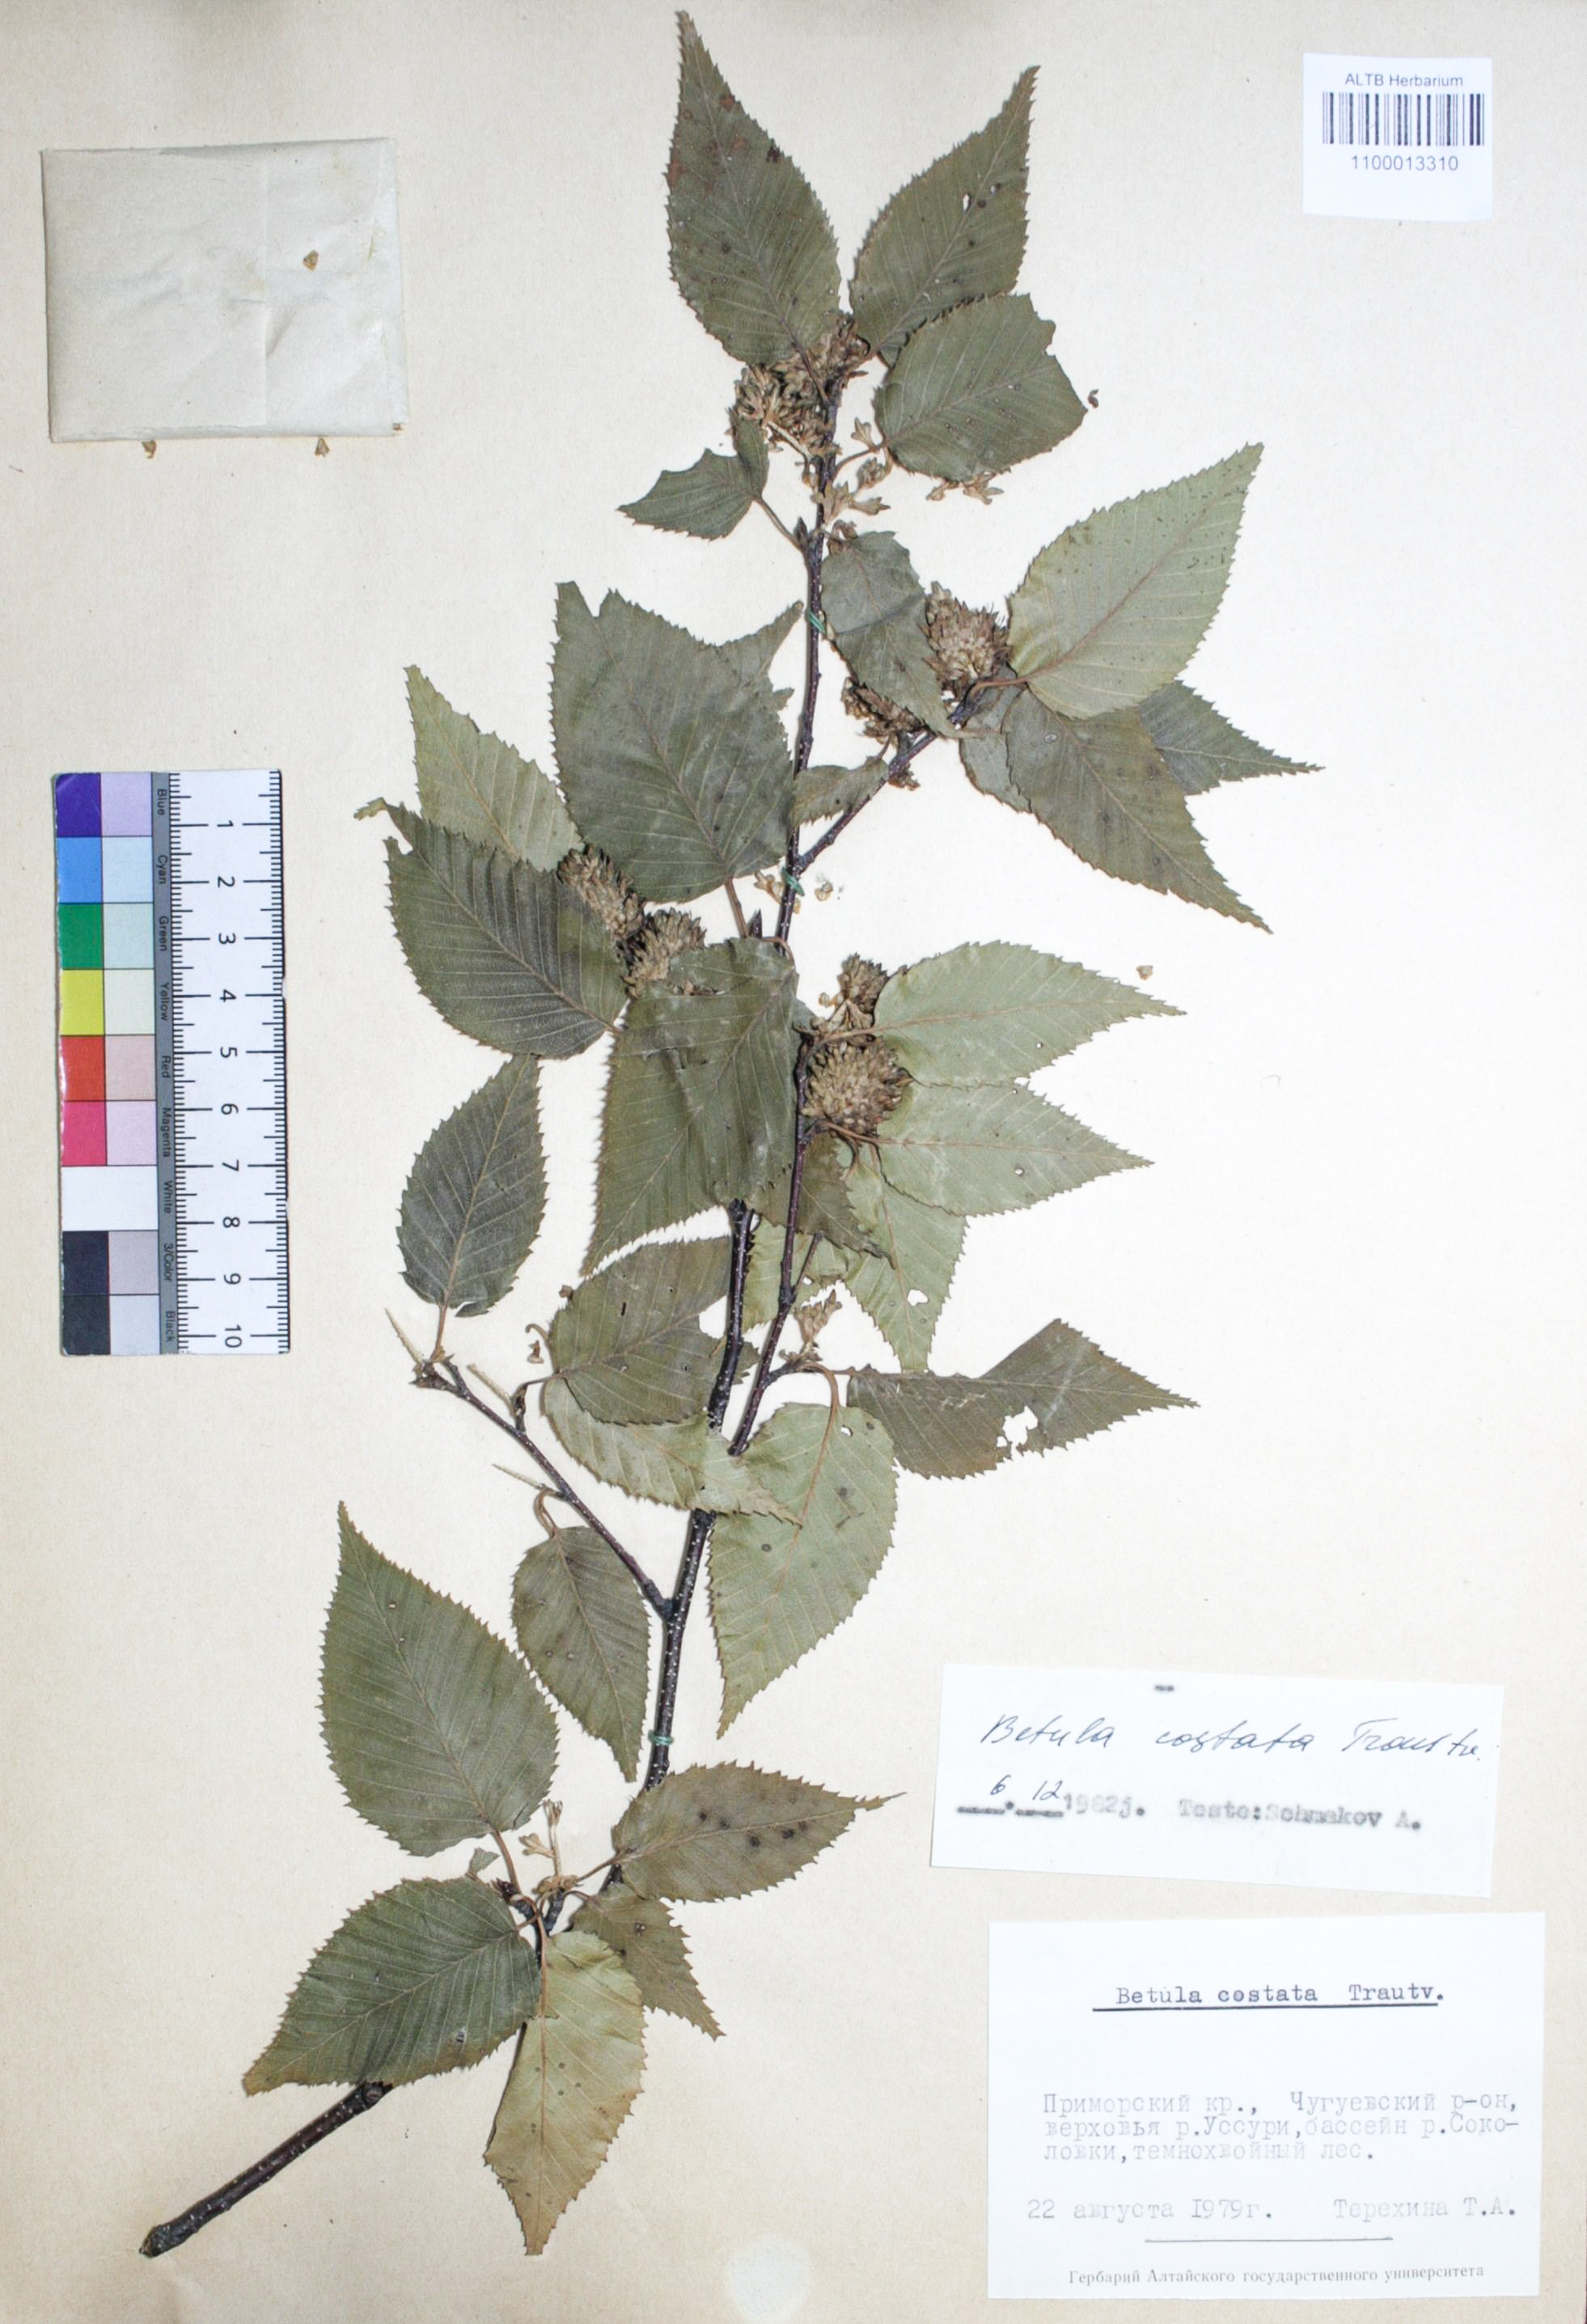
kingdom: Plantae
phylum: Tracheophyta
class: Magnoliopsida
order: Fagales
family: Betulaceae
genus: Betula
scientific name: Betula costata
